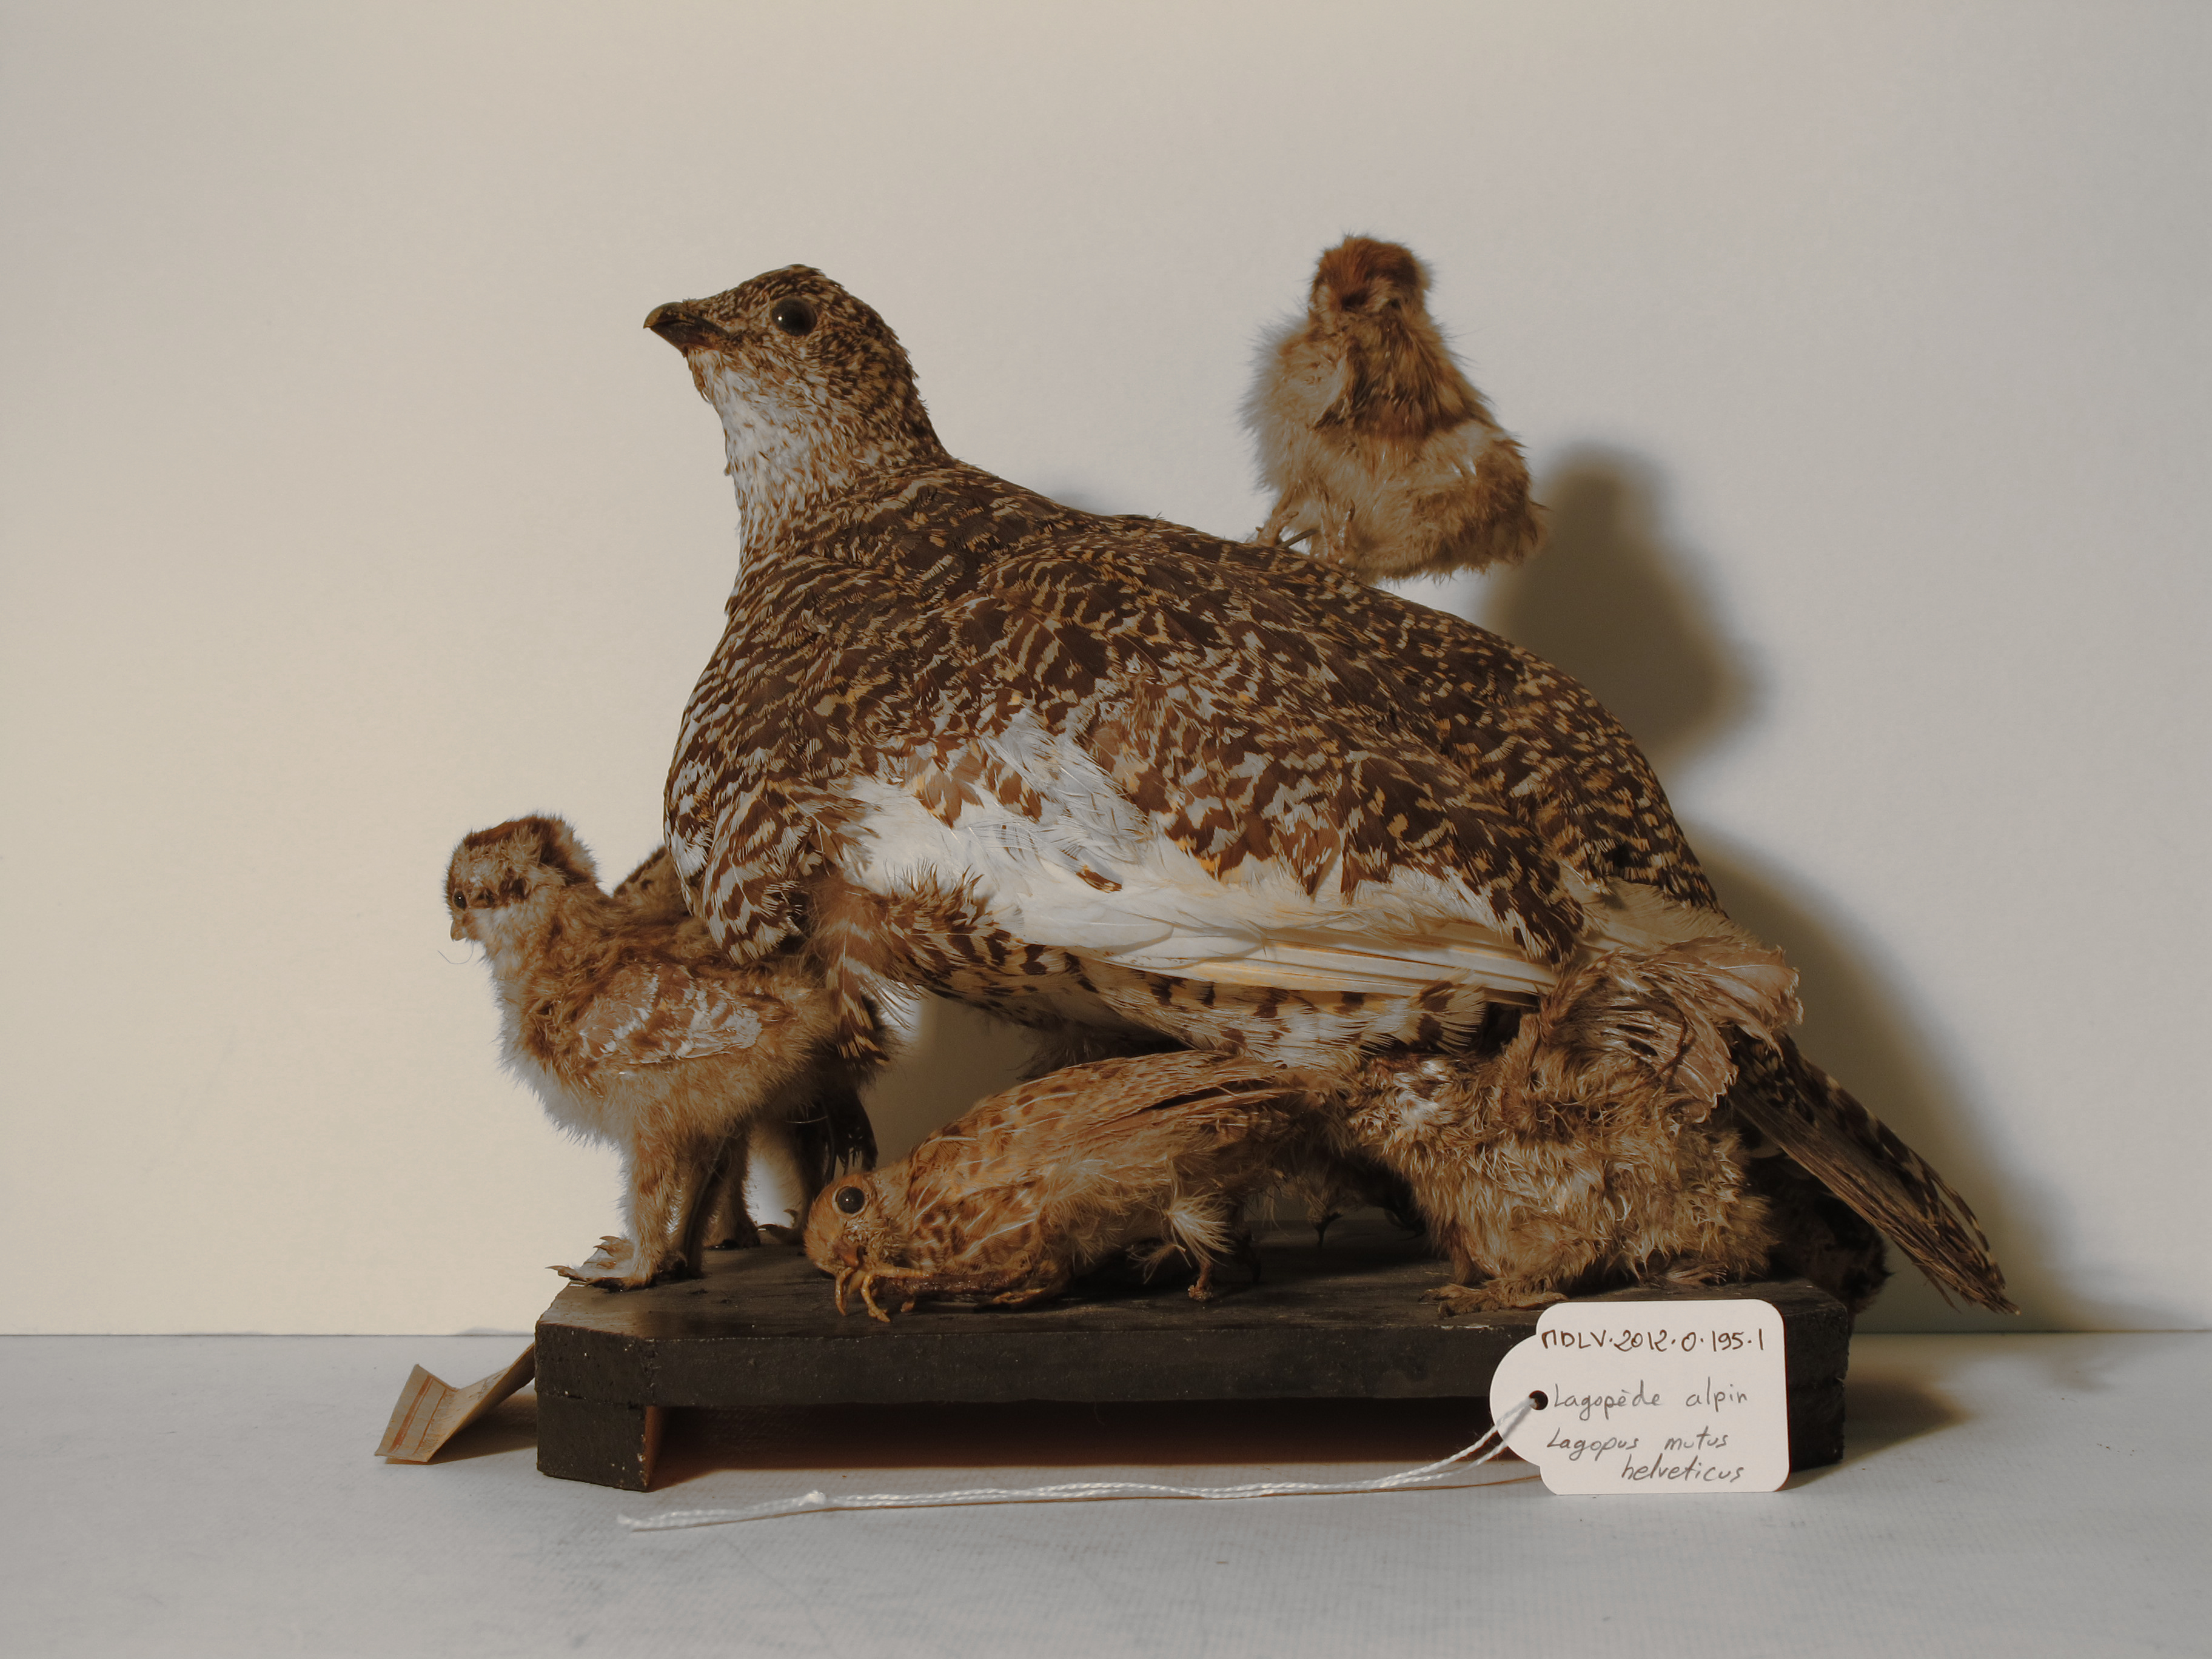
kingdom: Animalia
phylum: Chordata
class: Aves
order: Galliformes
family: Phasianidae
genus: Lagopus
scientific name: Lagopus muta
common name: Rock Ptarmigan
